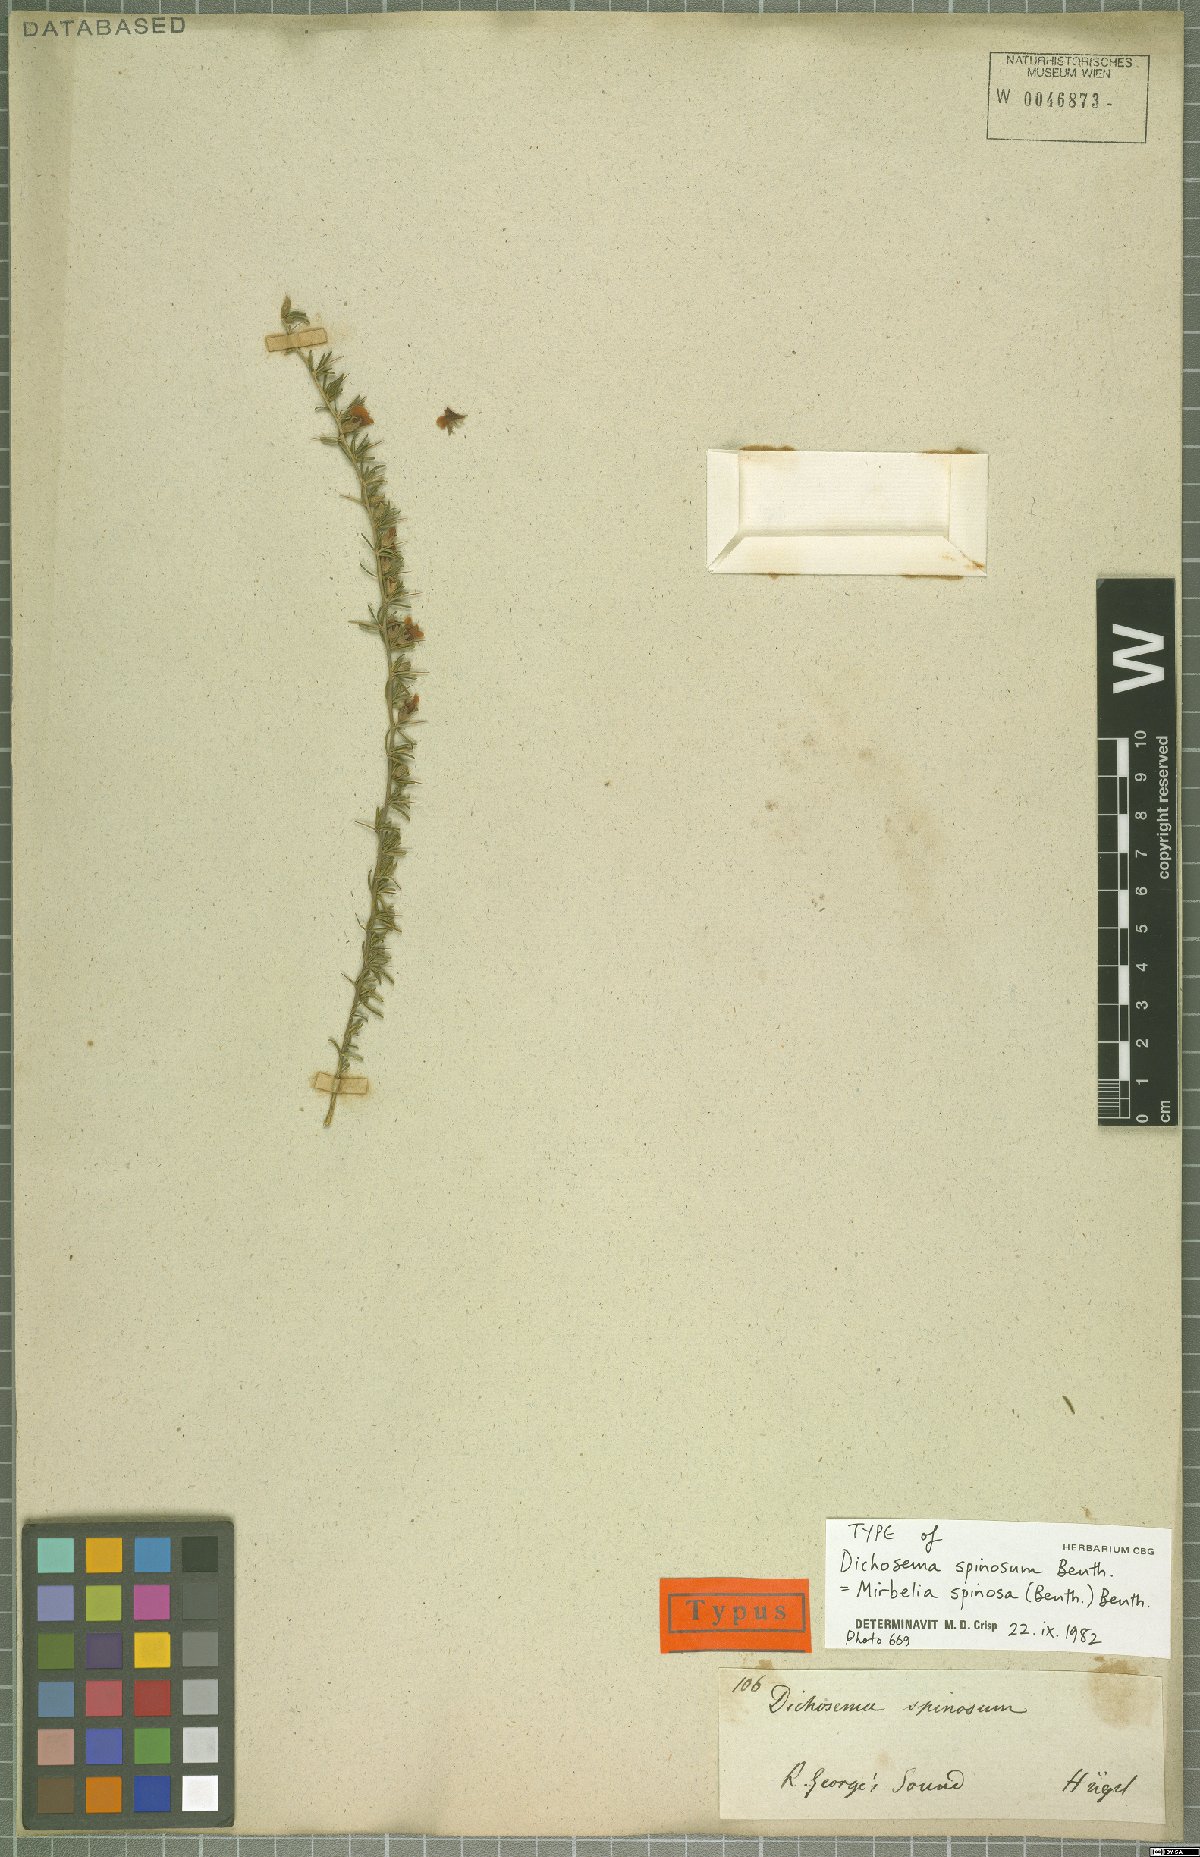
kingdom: Plantae
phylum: Tracheophyta
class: Magnoliopsida
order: Fabales
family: Fabaceae
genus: Mirbelia
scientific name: Mirbelia spinosa
